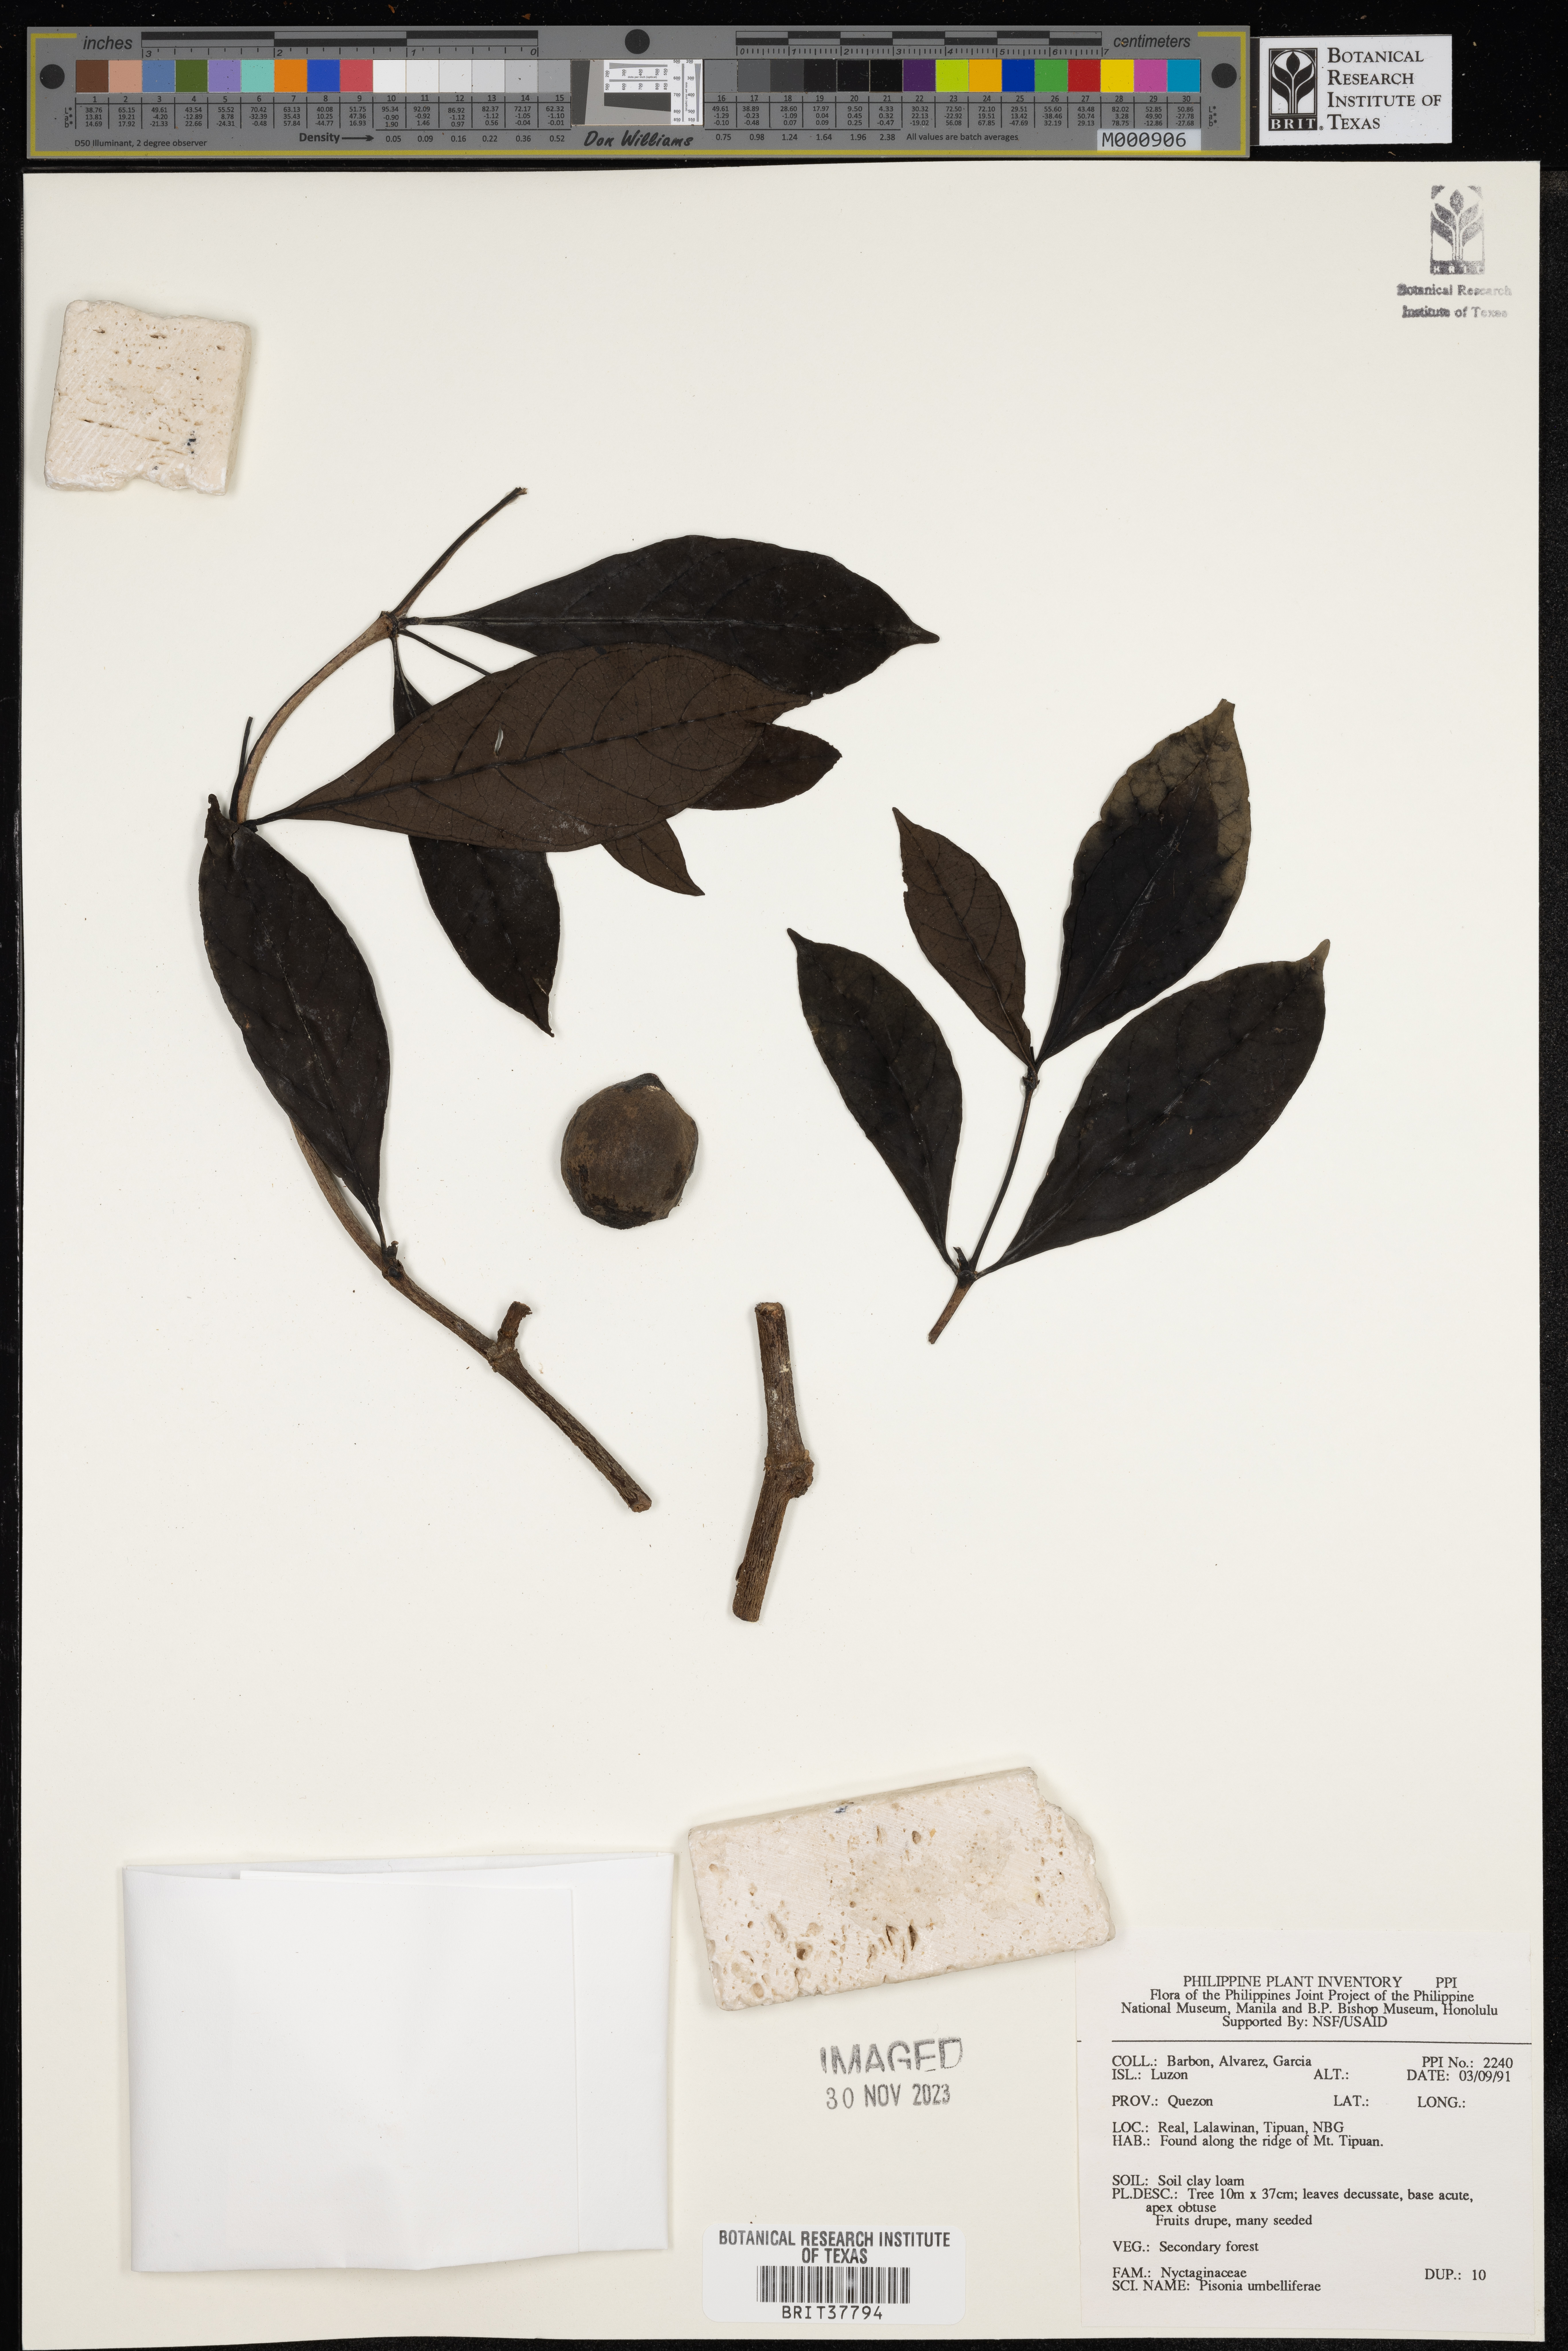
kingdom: Plantae
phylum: Tracheophyta
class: Magnoliopsida
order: Caryophyllales
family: Nyctaginaceae
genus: Ceodes
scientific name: Ceodes umbellifera
